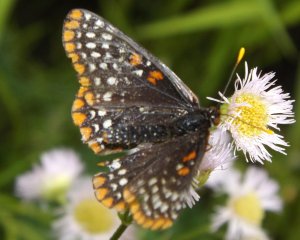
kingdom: Animalia
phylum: Arthropoda
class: Insecta
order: Lepidoptera
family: Nymphalidae
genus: Euphydryas
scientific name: Euphydryas phaeton
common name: Baltimore Checkerspot
